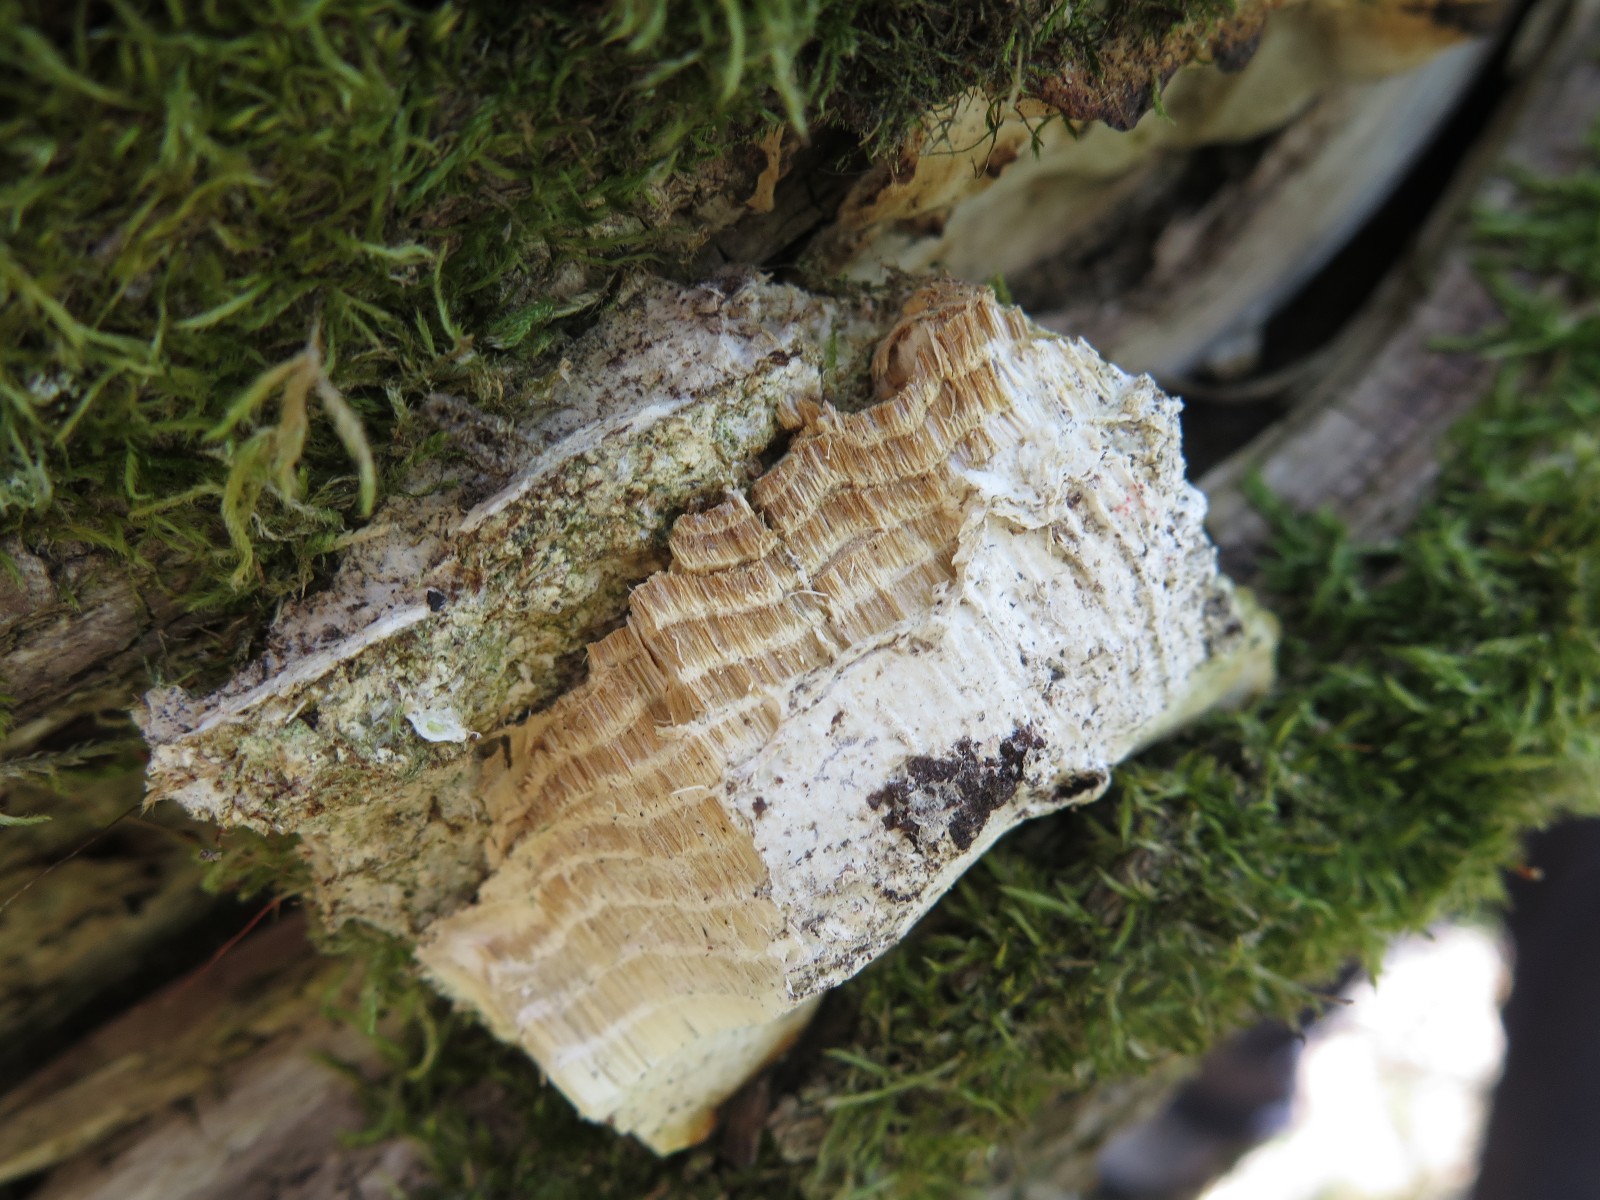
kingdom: Fungi
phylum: Basidiomycota
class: Agaricomycetes
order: Hymenochaetales
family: Oxyporaceae
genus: Oxyporus
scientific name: Oxyporus populinus
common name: sammenvokset trylleporesvamp
